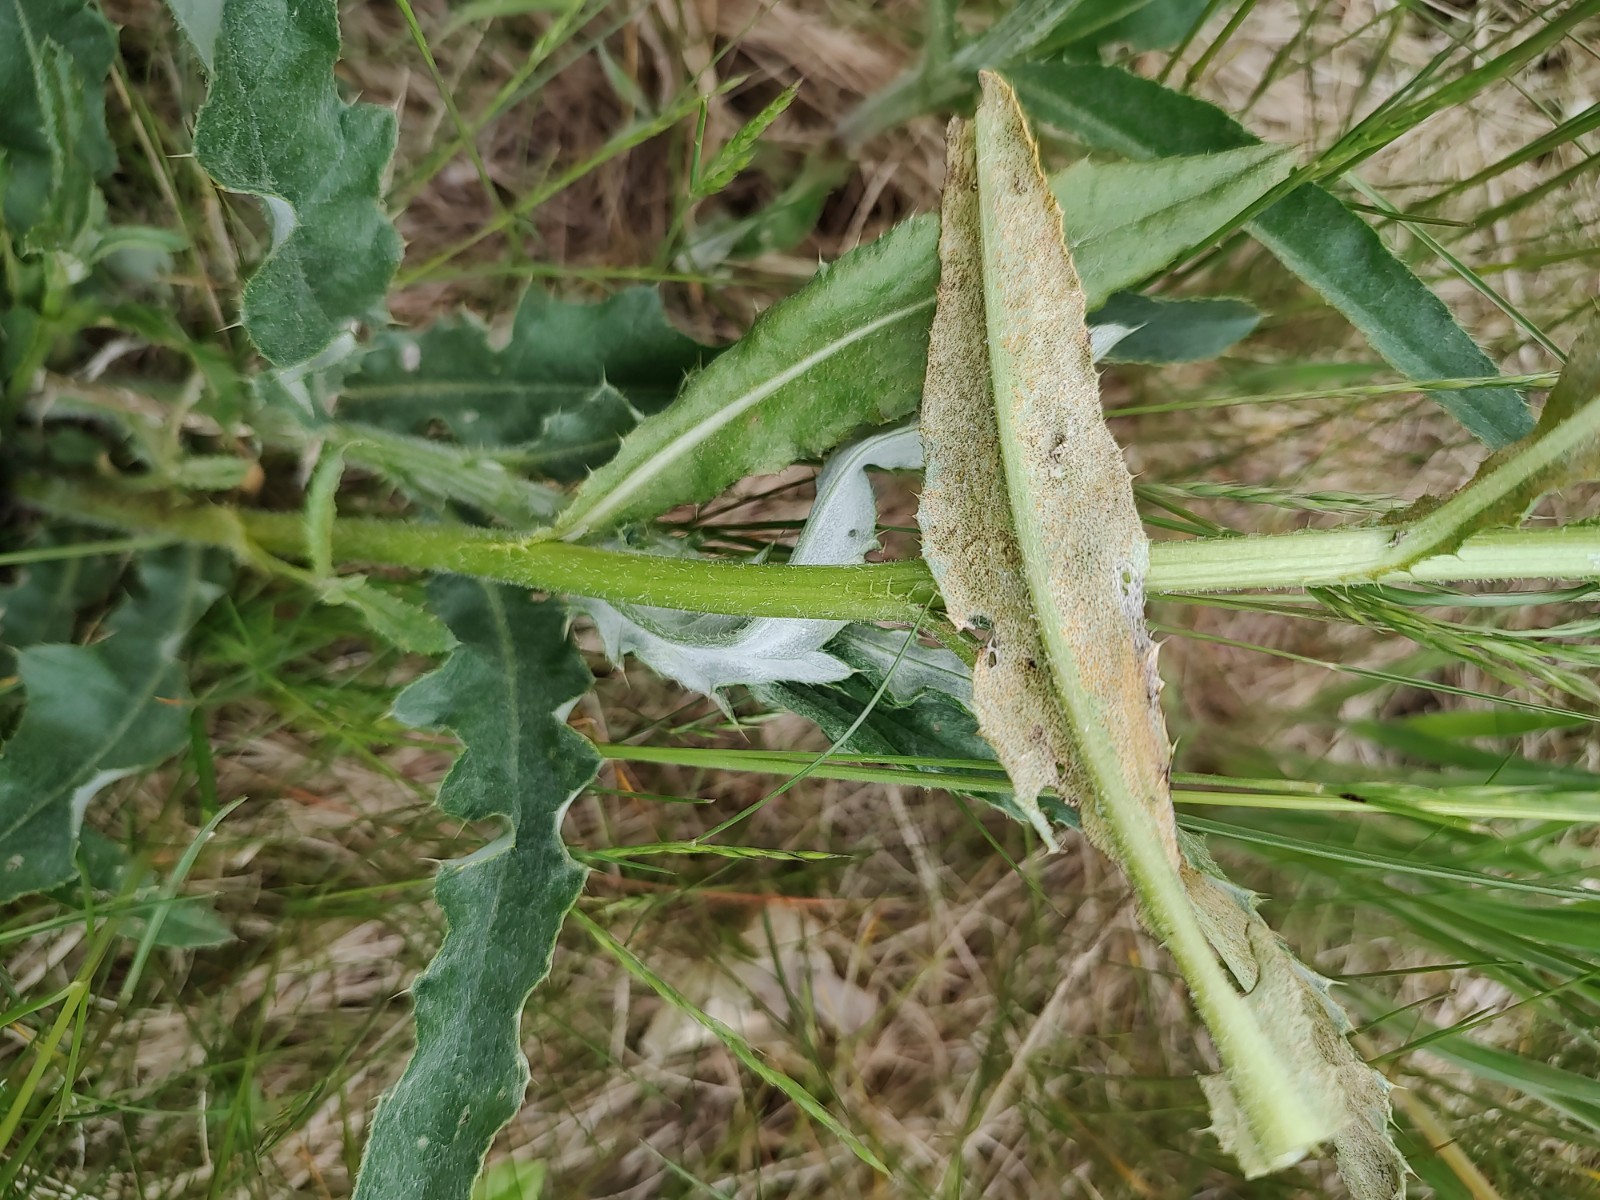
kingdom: Fungi
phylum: Basidiomycota
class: Pucciniomycetes
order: Pucciniales
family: Pucciniaceae
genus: Puccinia
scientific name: Puccinia suaveolens
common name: tidsel-tvecellerust
